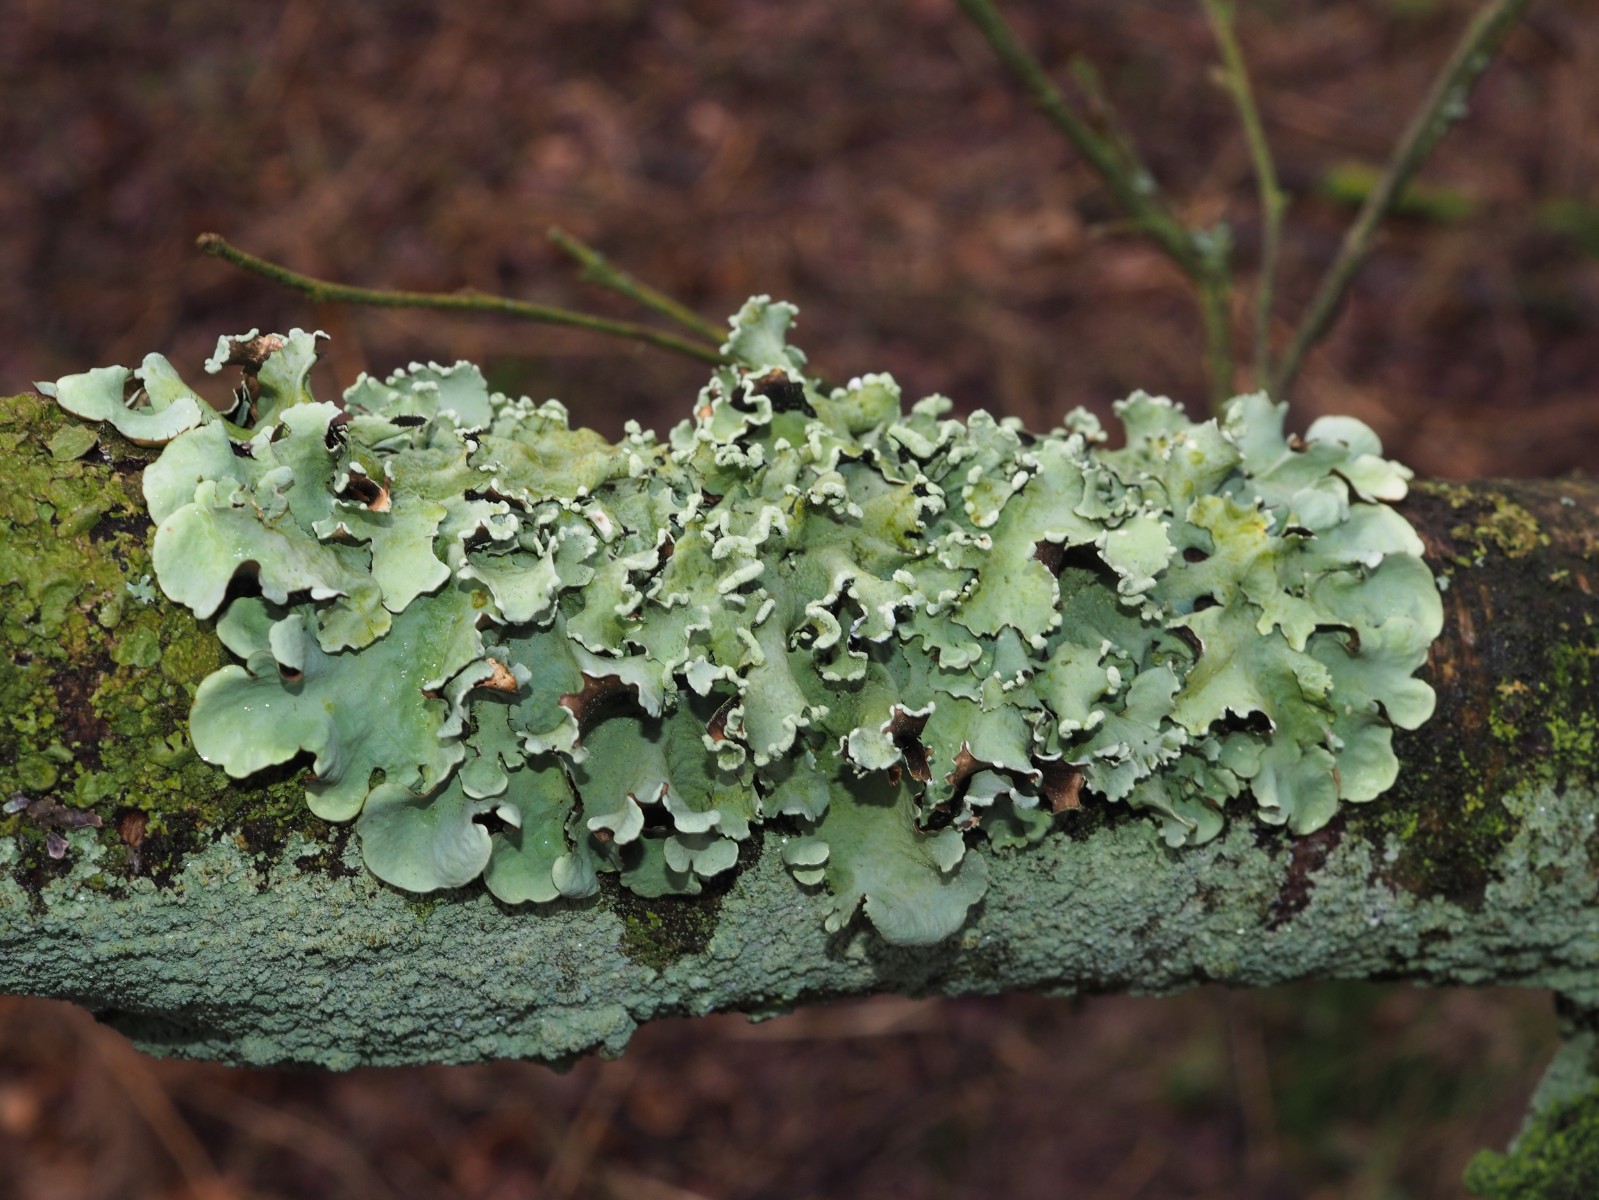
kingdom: Fungi
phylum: Ascomycota
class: Lecanoromycetes
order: Lecanorales
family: Parmeliaceae
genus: Parmotrema
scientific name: Parmotrema perlatum
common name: trådet skållav
